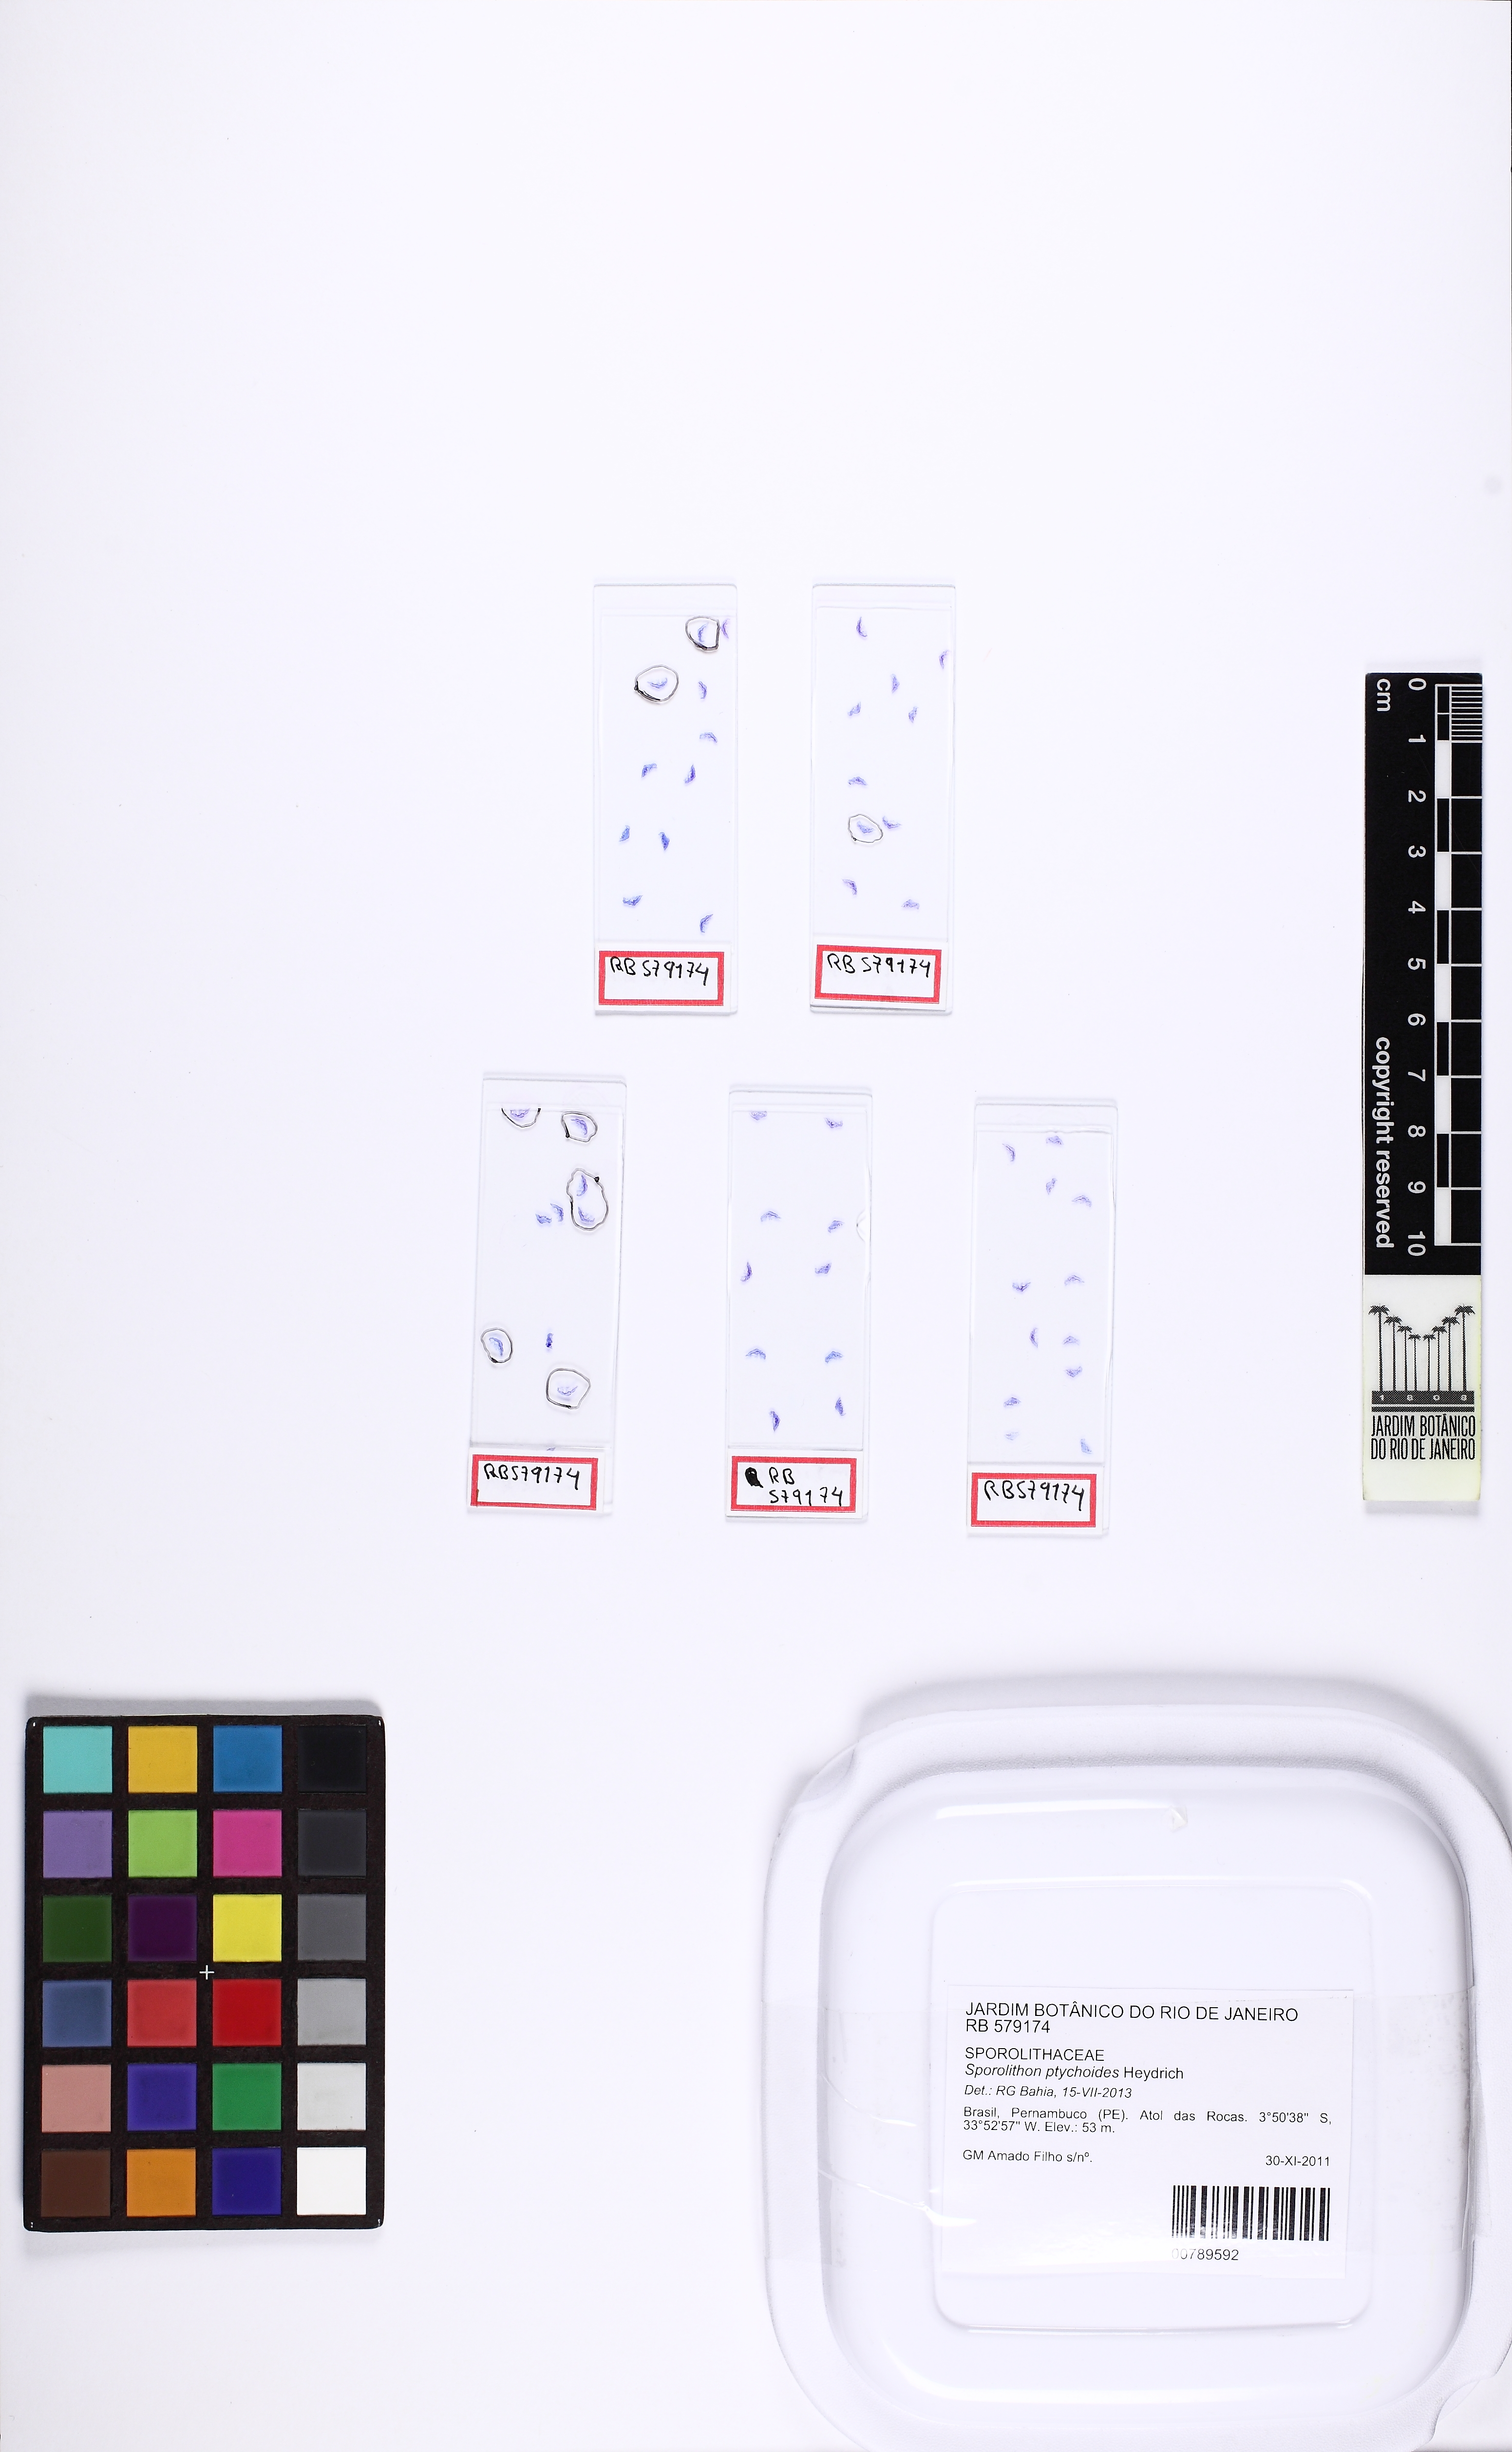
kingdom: Plantae
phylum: Rhodophyta
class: Florideophyceae
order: Corallinales
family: Sporolithaceae
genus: Sporolithon
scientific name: Sporolithon ptychoides
